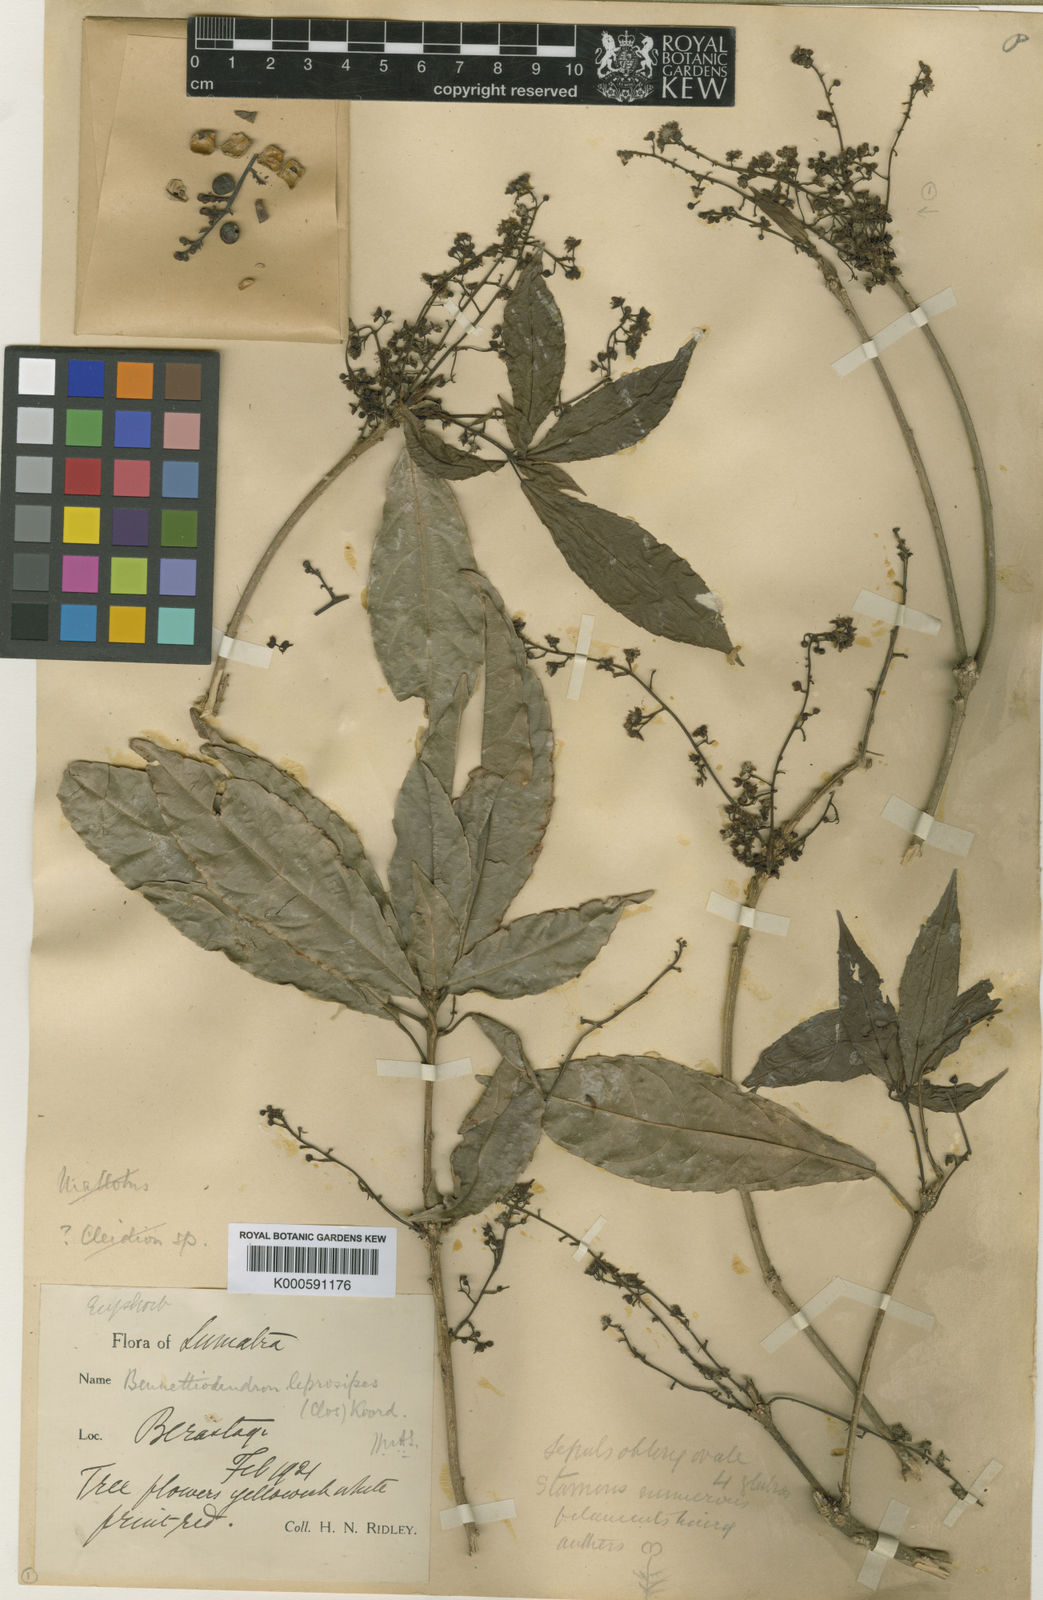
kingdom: Plantae
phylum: Tracheophyta
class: Magnoliopsida
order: Malpighiales
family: Salicaceae
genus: Bennettiodendron
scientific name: Bennettiodendron leprosipes
